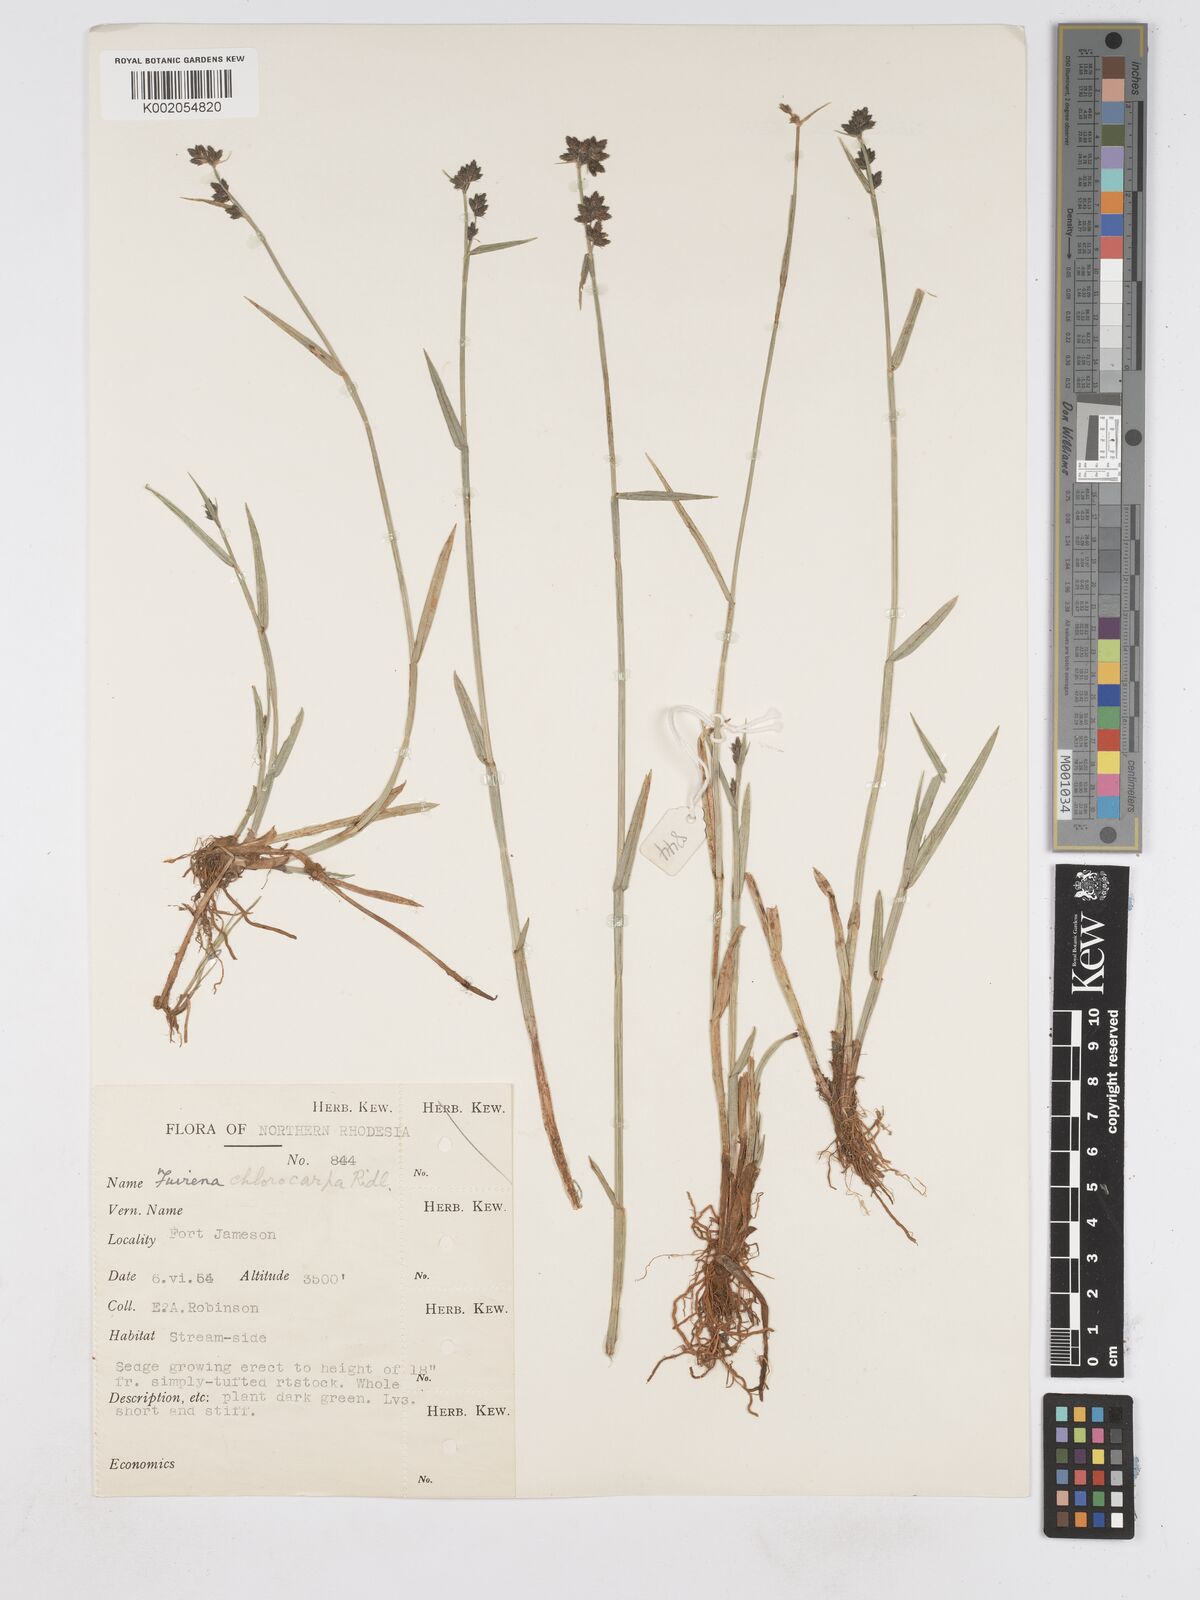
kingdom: Plantae
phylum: Tracheophyta
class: Liliopsida
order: Poales
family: Cyperaceae
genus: Fuirena
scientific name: Fuirena stricta
